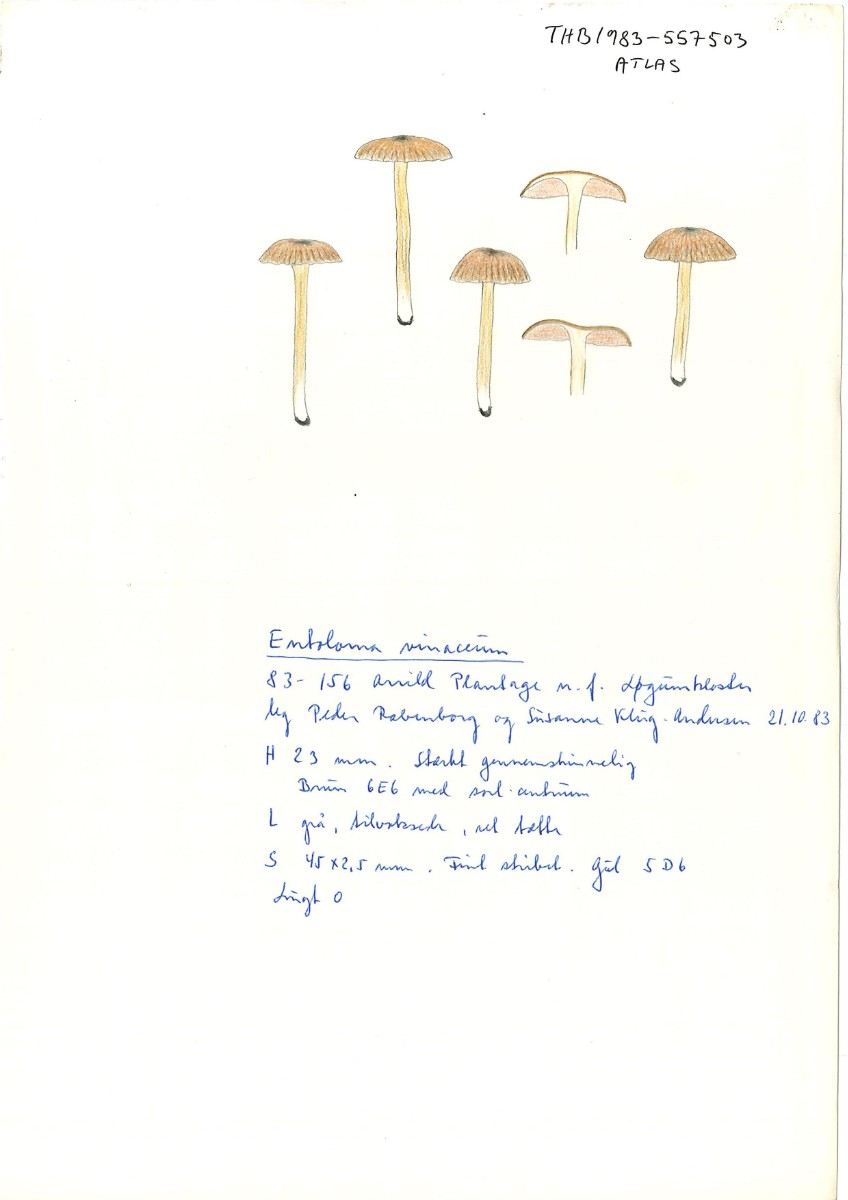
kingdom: Fungi
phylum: Basidiomycota
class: Agaricomycetes
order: Agaricales
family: Entolomataceae
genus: Entocybe
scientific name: Entocybe vinacea
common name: november-rødblad
